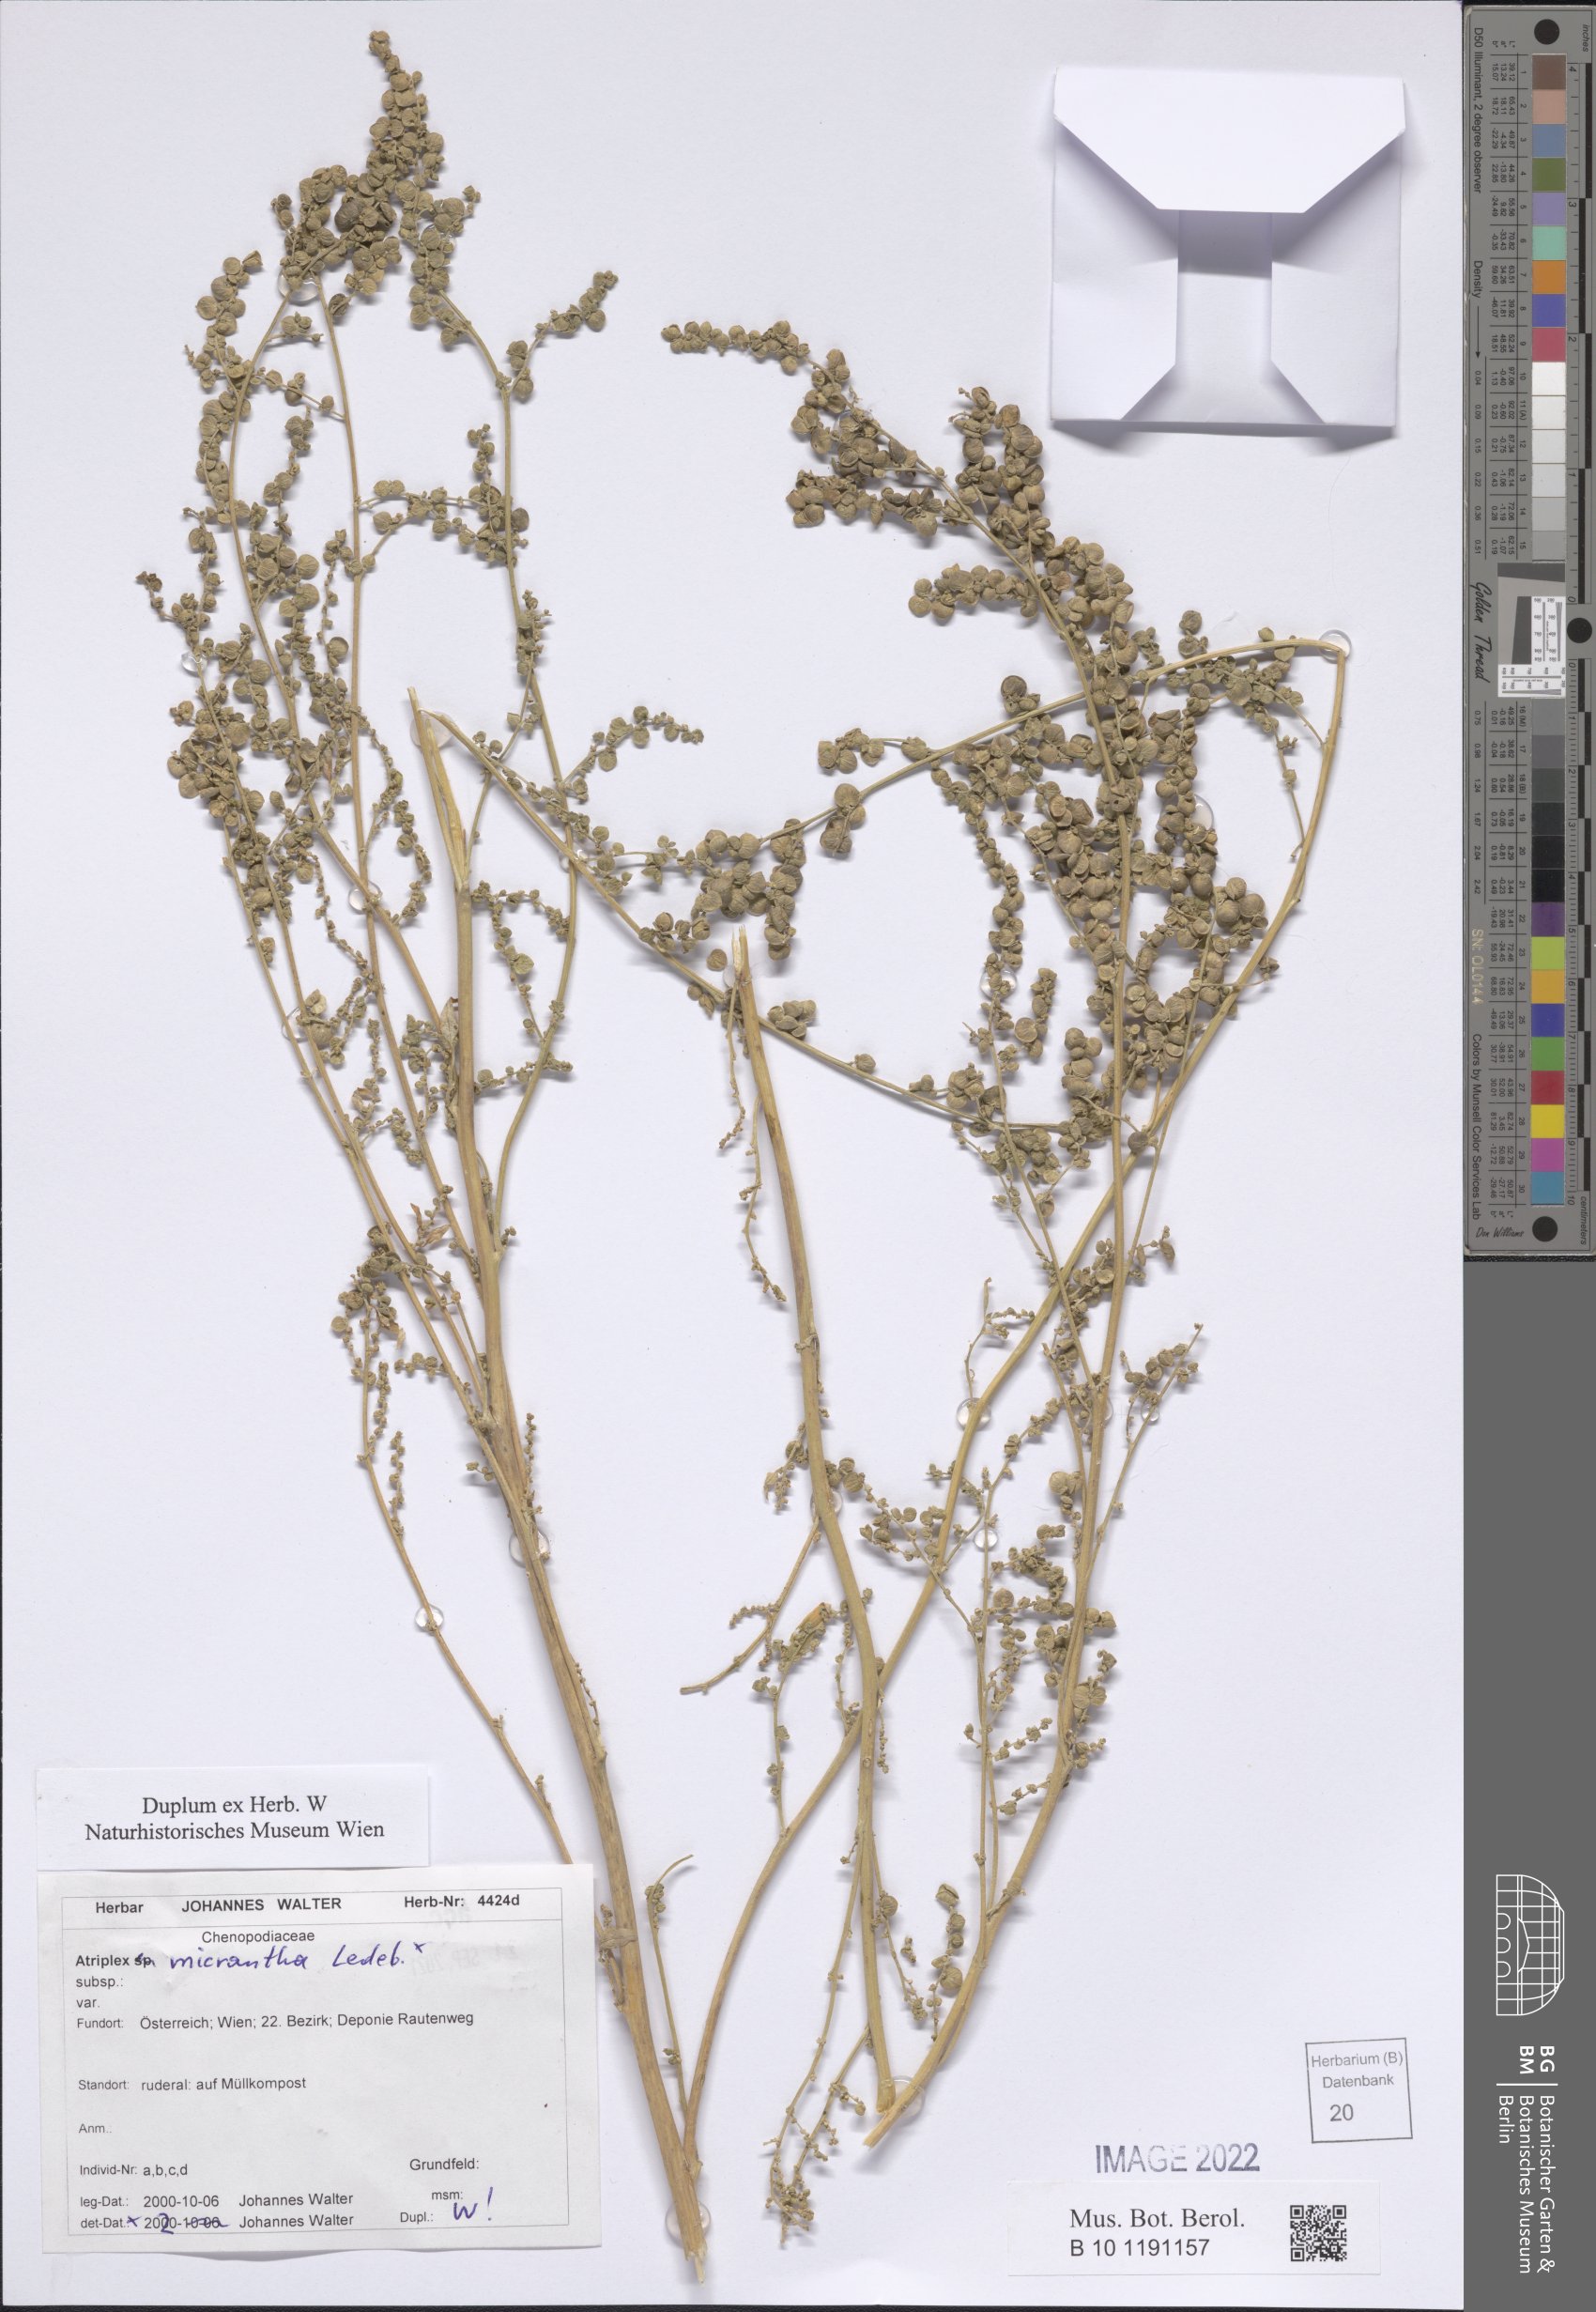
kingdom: Plantae
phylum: Tracheophyta
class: Magnoliopsida
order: Caryophyllales
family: Amaranthaceae
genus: Atriplex
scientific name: Atriplex micrantha
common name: Twoscale saltbush
